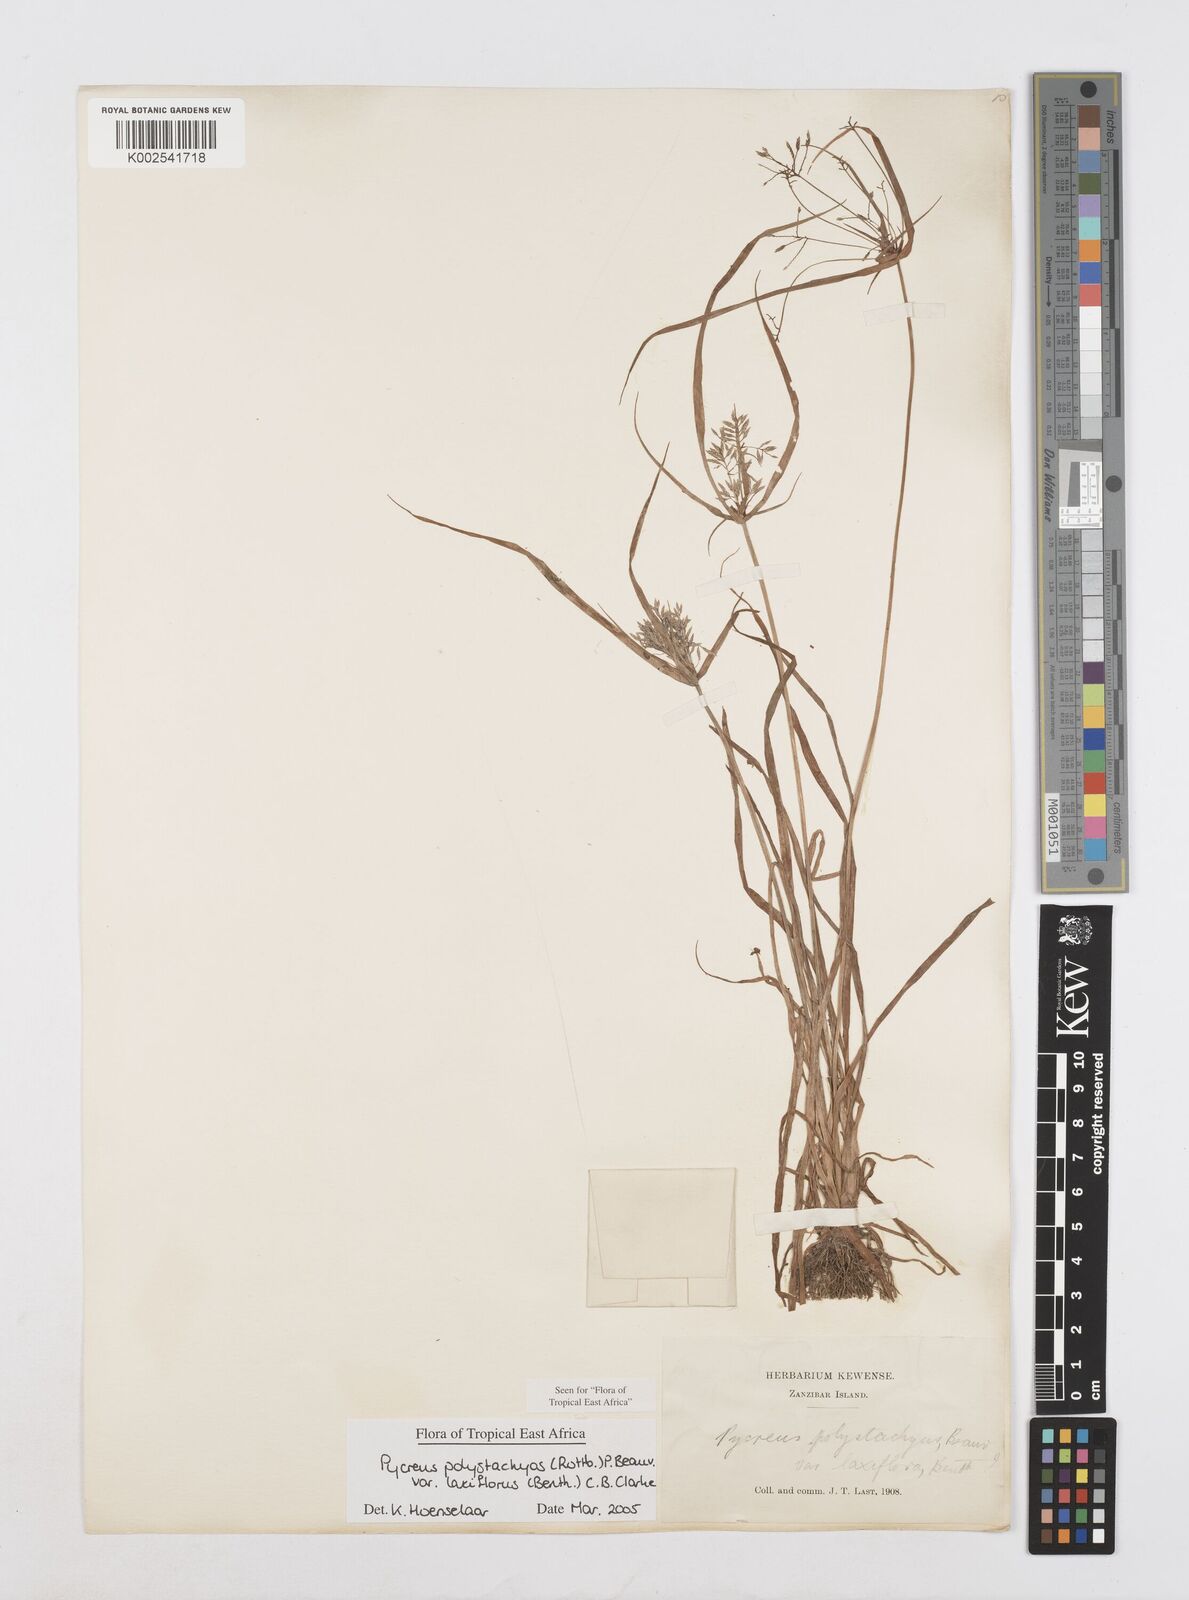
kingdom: Plantae
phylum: Tracheophyta
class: Liliopsida
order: Poales
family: Cyperaceae
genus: Cyperus
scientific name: Cyperus polystachyos
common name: Bunchy flat sedge
